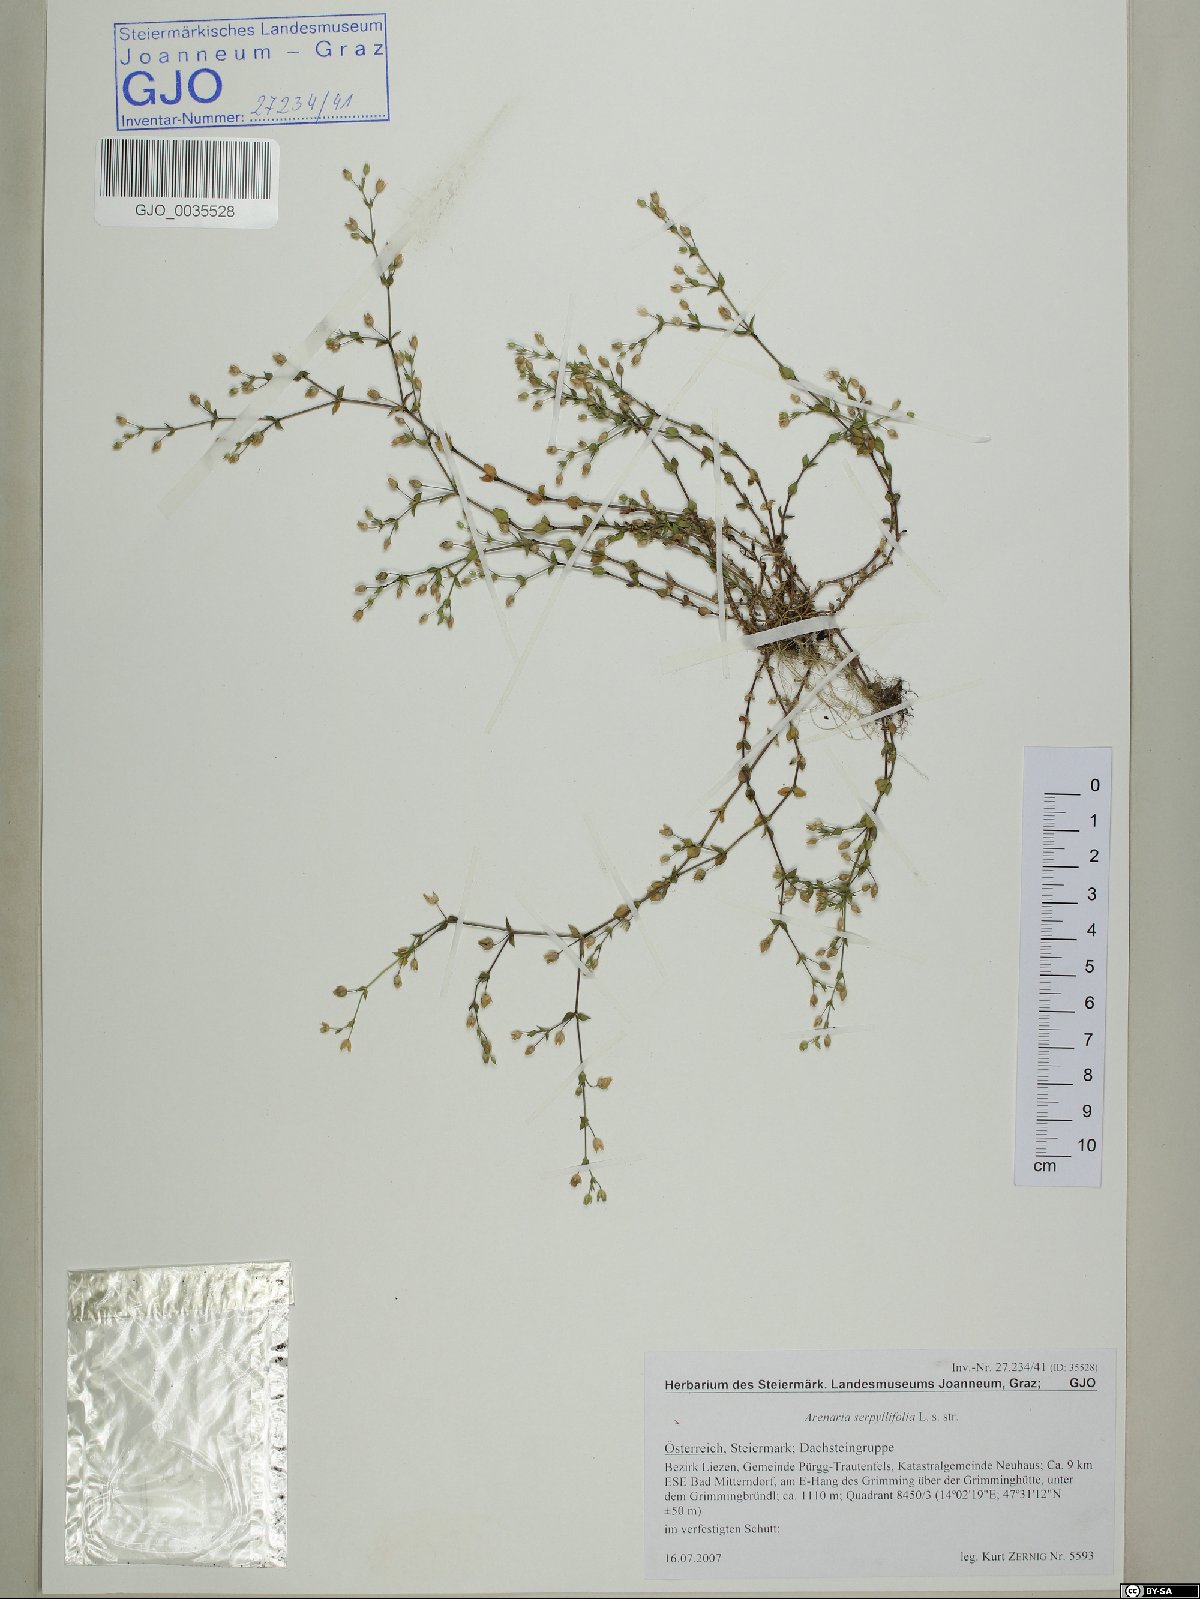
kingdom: Plantae
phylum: Tracheophyta
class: Magnoliopsida
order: Caryophyllales
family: Caryophyllaceae
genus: Arenaria
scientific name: Arenaria serpyllifolia
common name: Thyme-leaved sandwort
